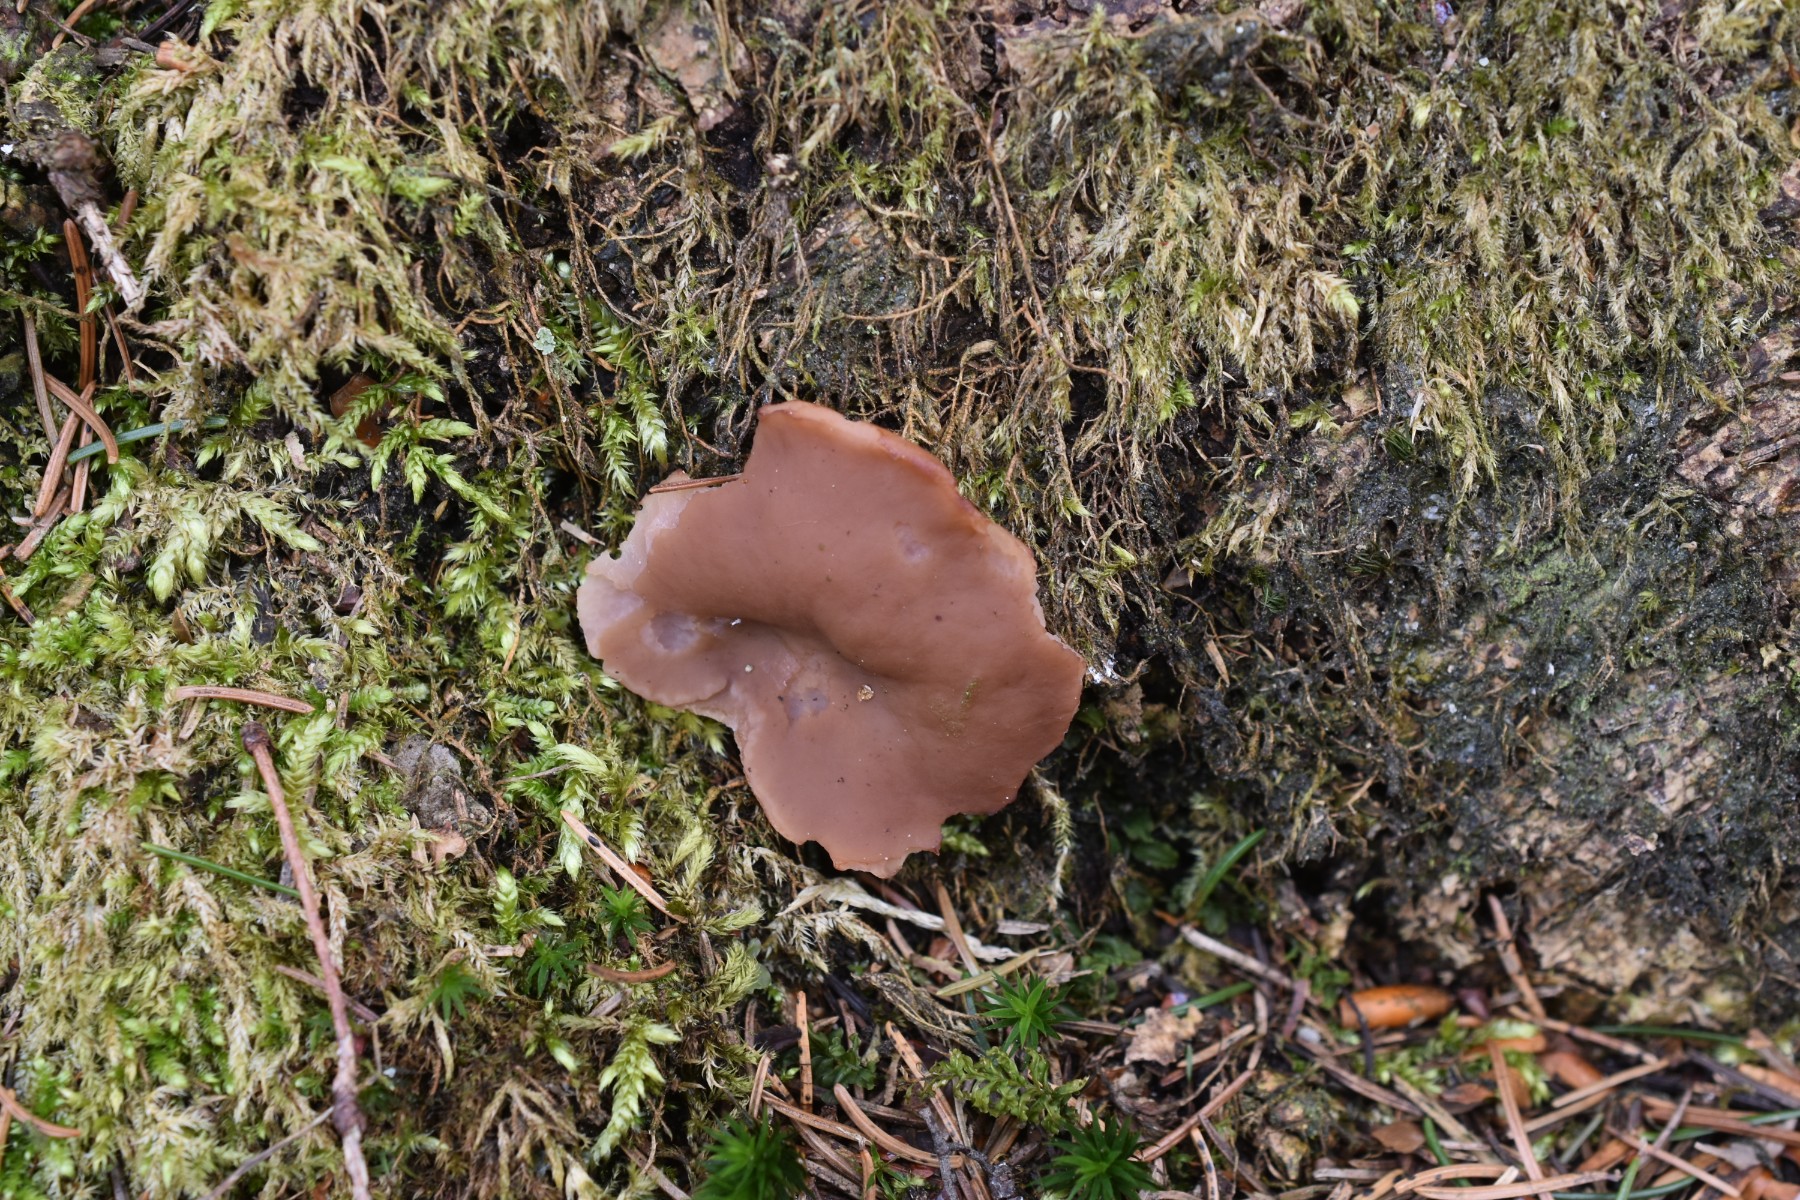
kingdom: Fungi
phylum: Ascomycota
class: Pezizomycetes
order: Pezizales
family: Discinaceae
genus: Discina
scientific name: Discina ancilis
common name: udbredt stenmorkel
